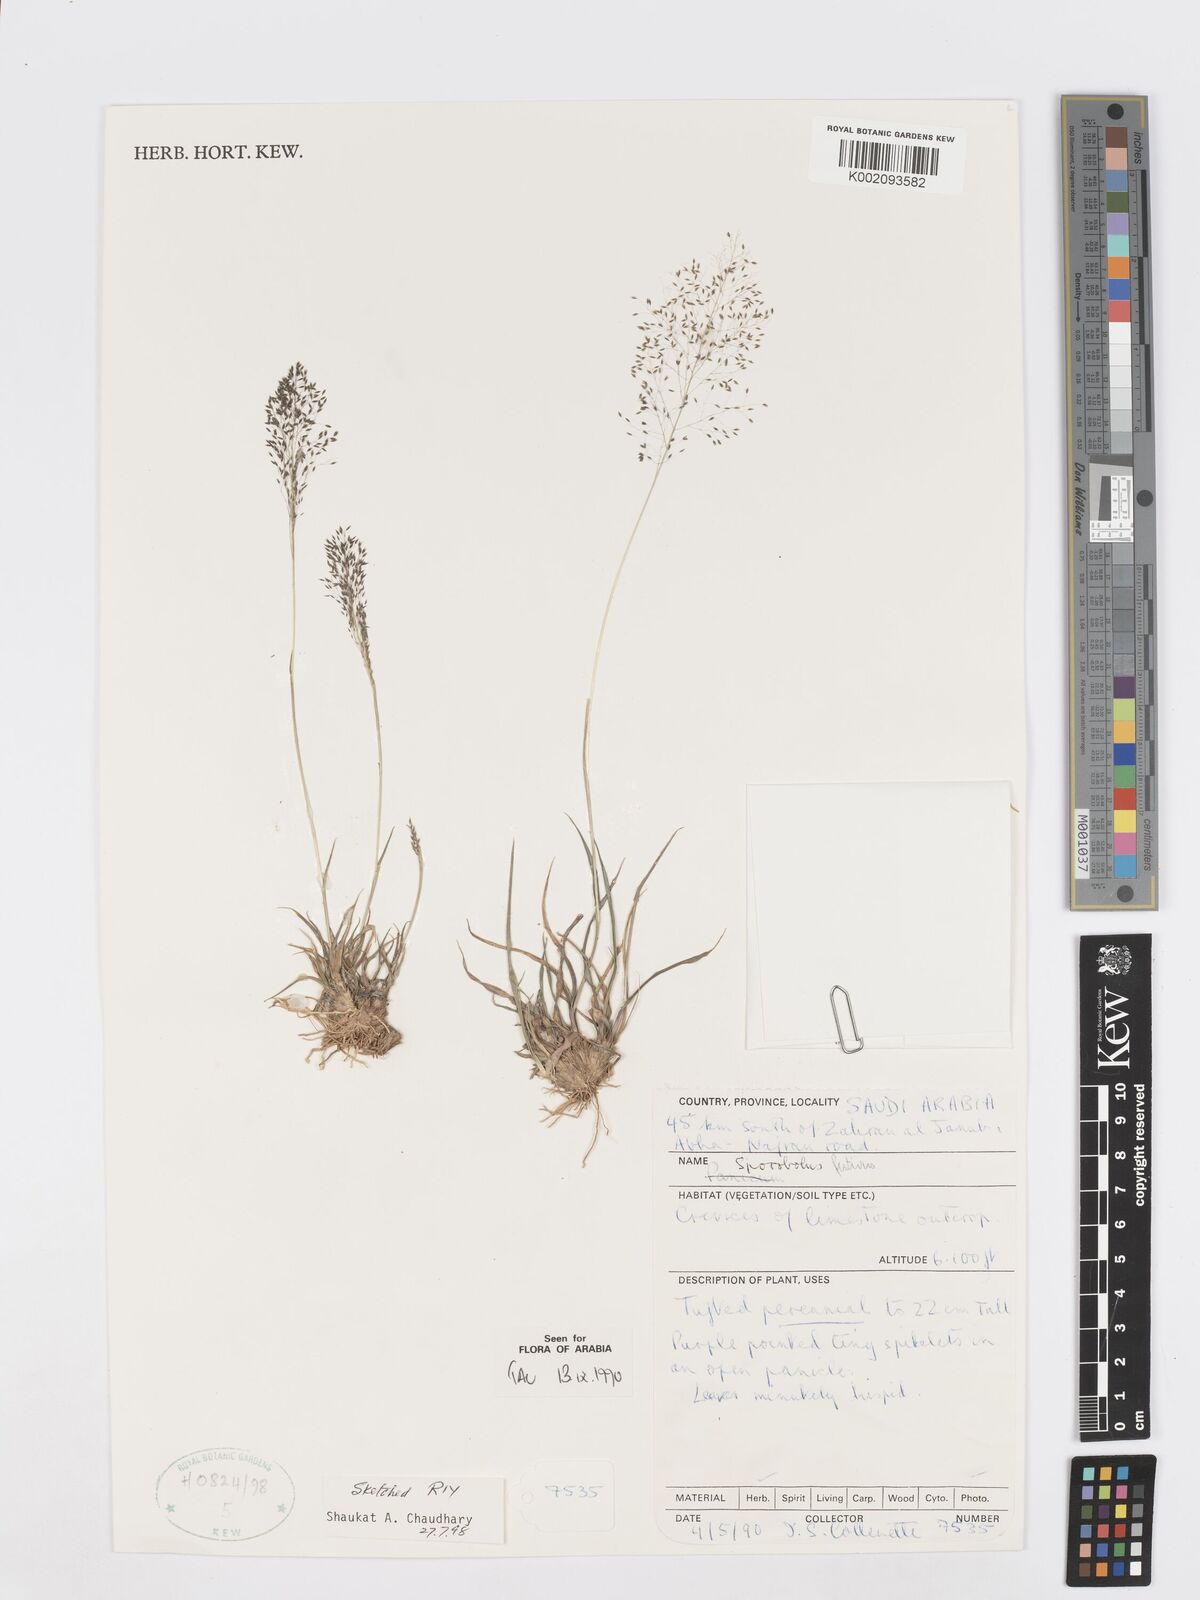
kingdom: Plantae
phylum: Tracheophyta
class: Liliopsida
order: Poales
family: Poaceae
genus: Sporobolus
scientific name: Sporobolus festivus
